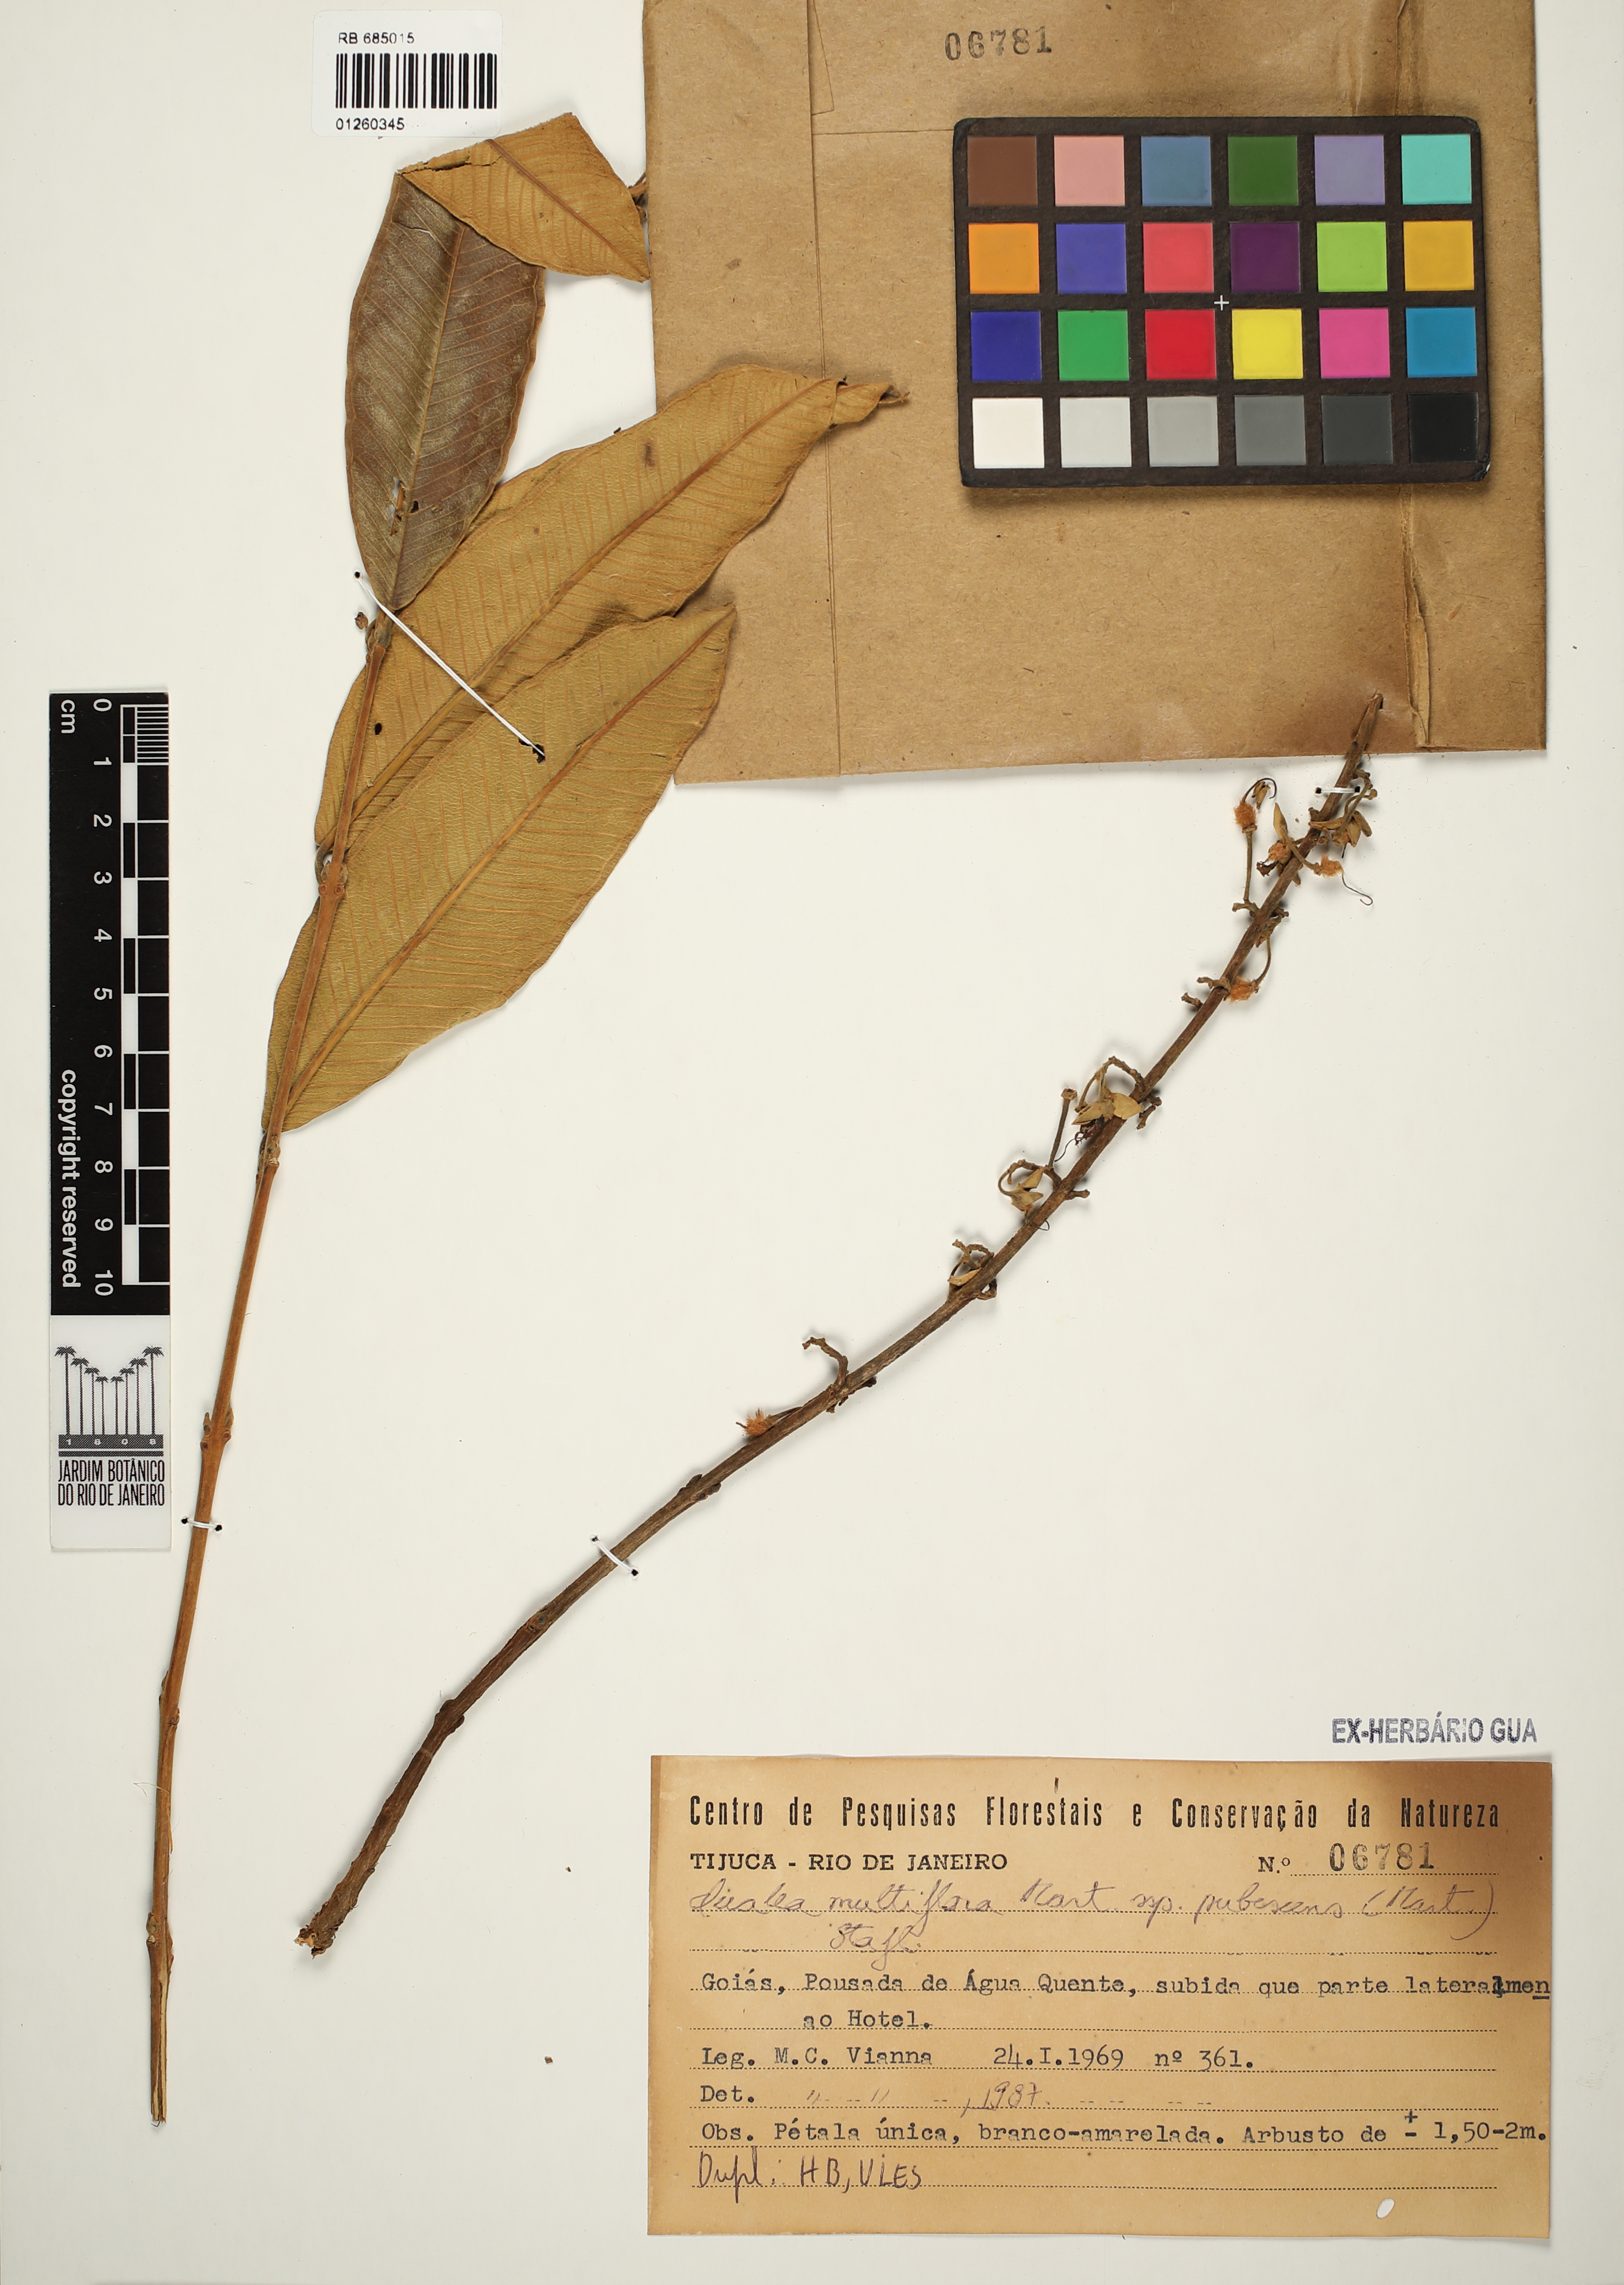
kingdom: Plantae
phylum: Tracheophyta
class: Magnoliopsida
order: Myrtales
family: Vochysiaceae
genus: Qualea
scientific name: Qualea multiflora
